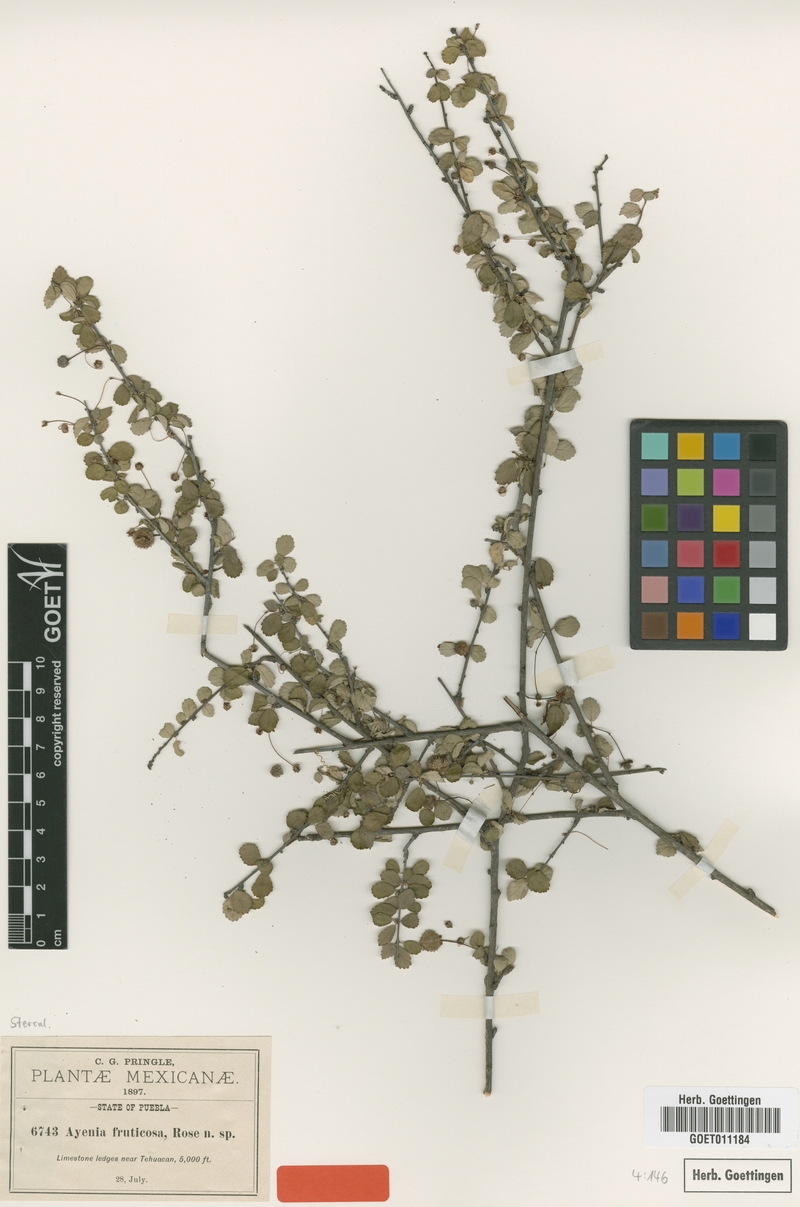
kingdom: Plantae
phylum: Tracheophyta
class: Magnoliopsida
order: Malvales
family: Malvaceae
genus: Ayenia
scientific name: Ayenia fruticosa
